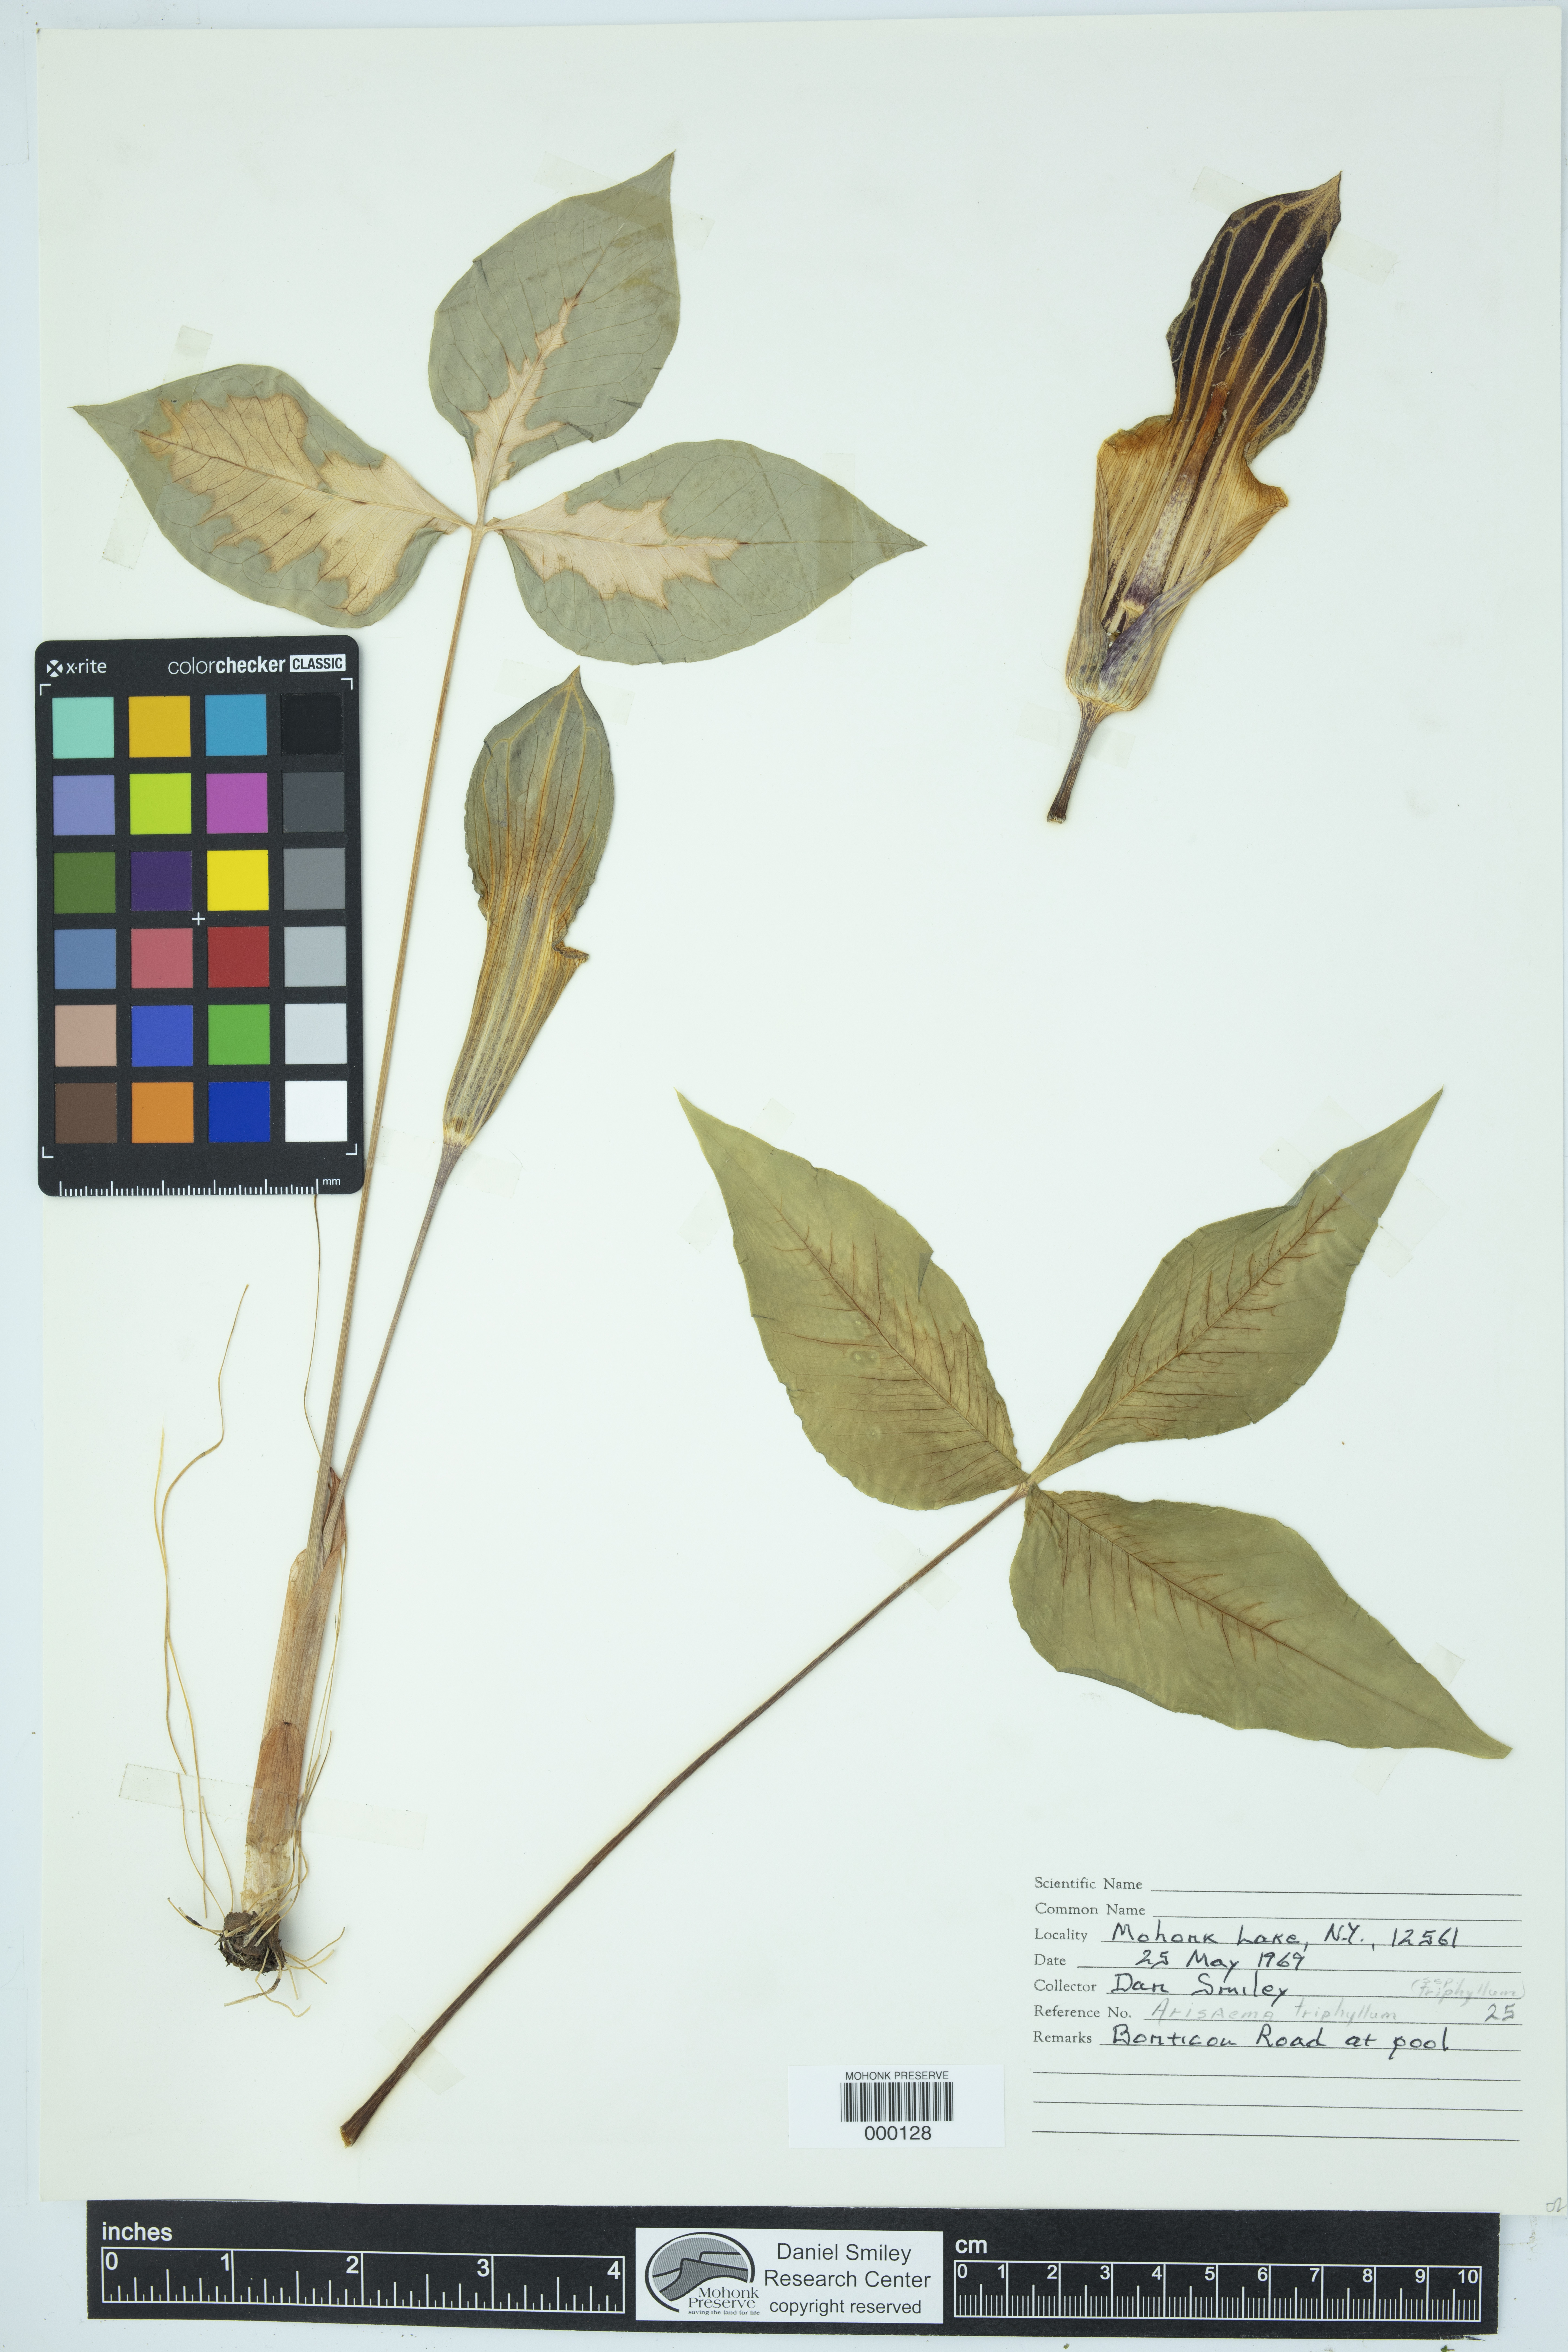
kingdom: Plantae
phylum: Tracheophyta
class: Liliopsida
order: Alismatales
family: Araceae
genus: Arisaema
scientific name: Arisaema triphyllum
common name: Jack-in-the-pulpit
